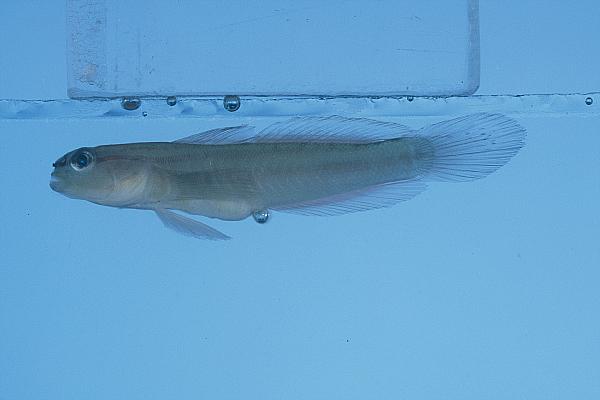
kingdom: Animalia
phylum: Chordata
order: Perciformes
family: Gobiidae
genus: Amblygobius
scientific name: Amblygobius tekomaji
